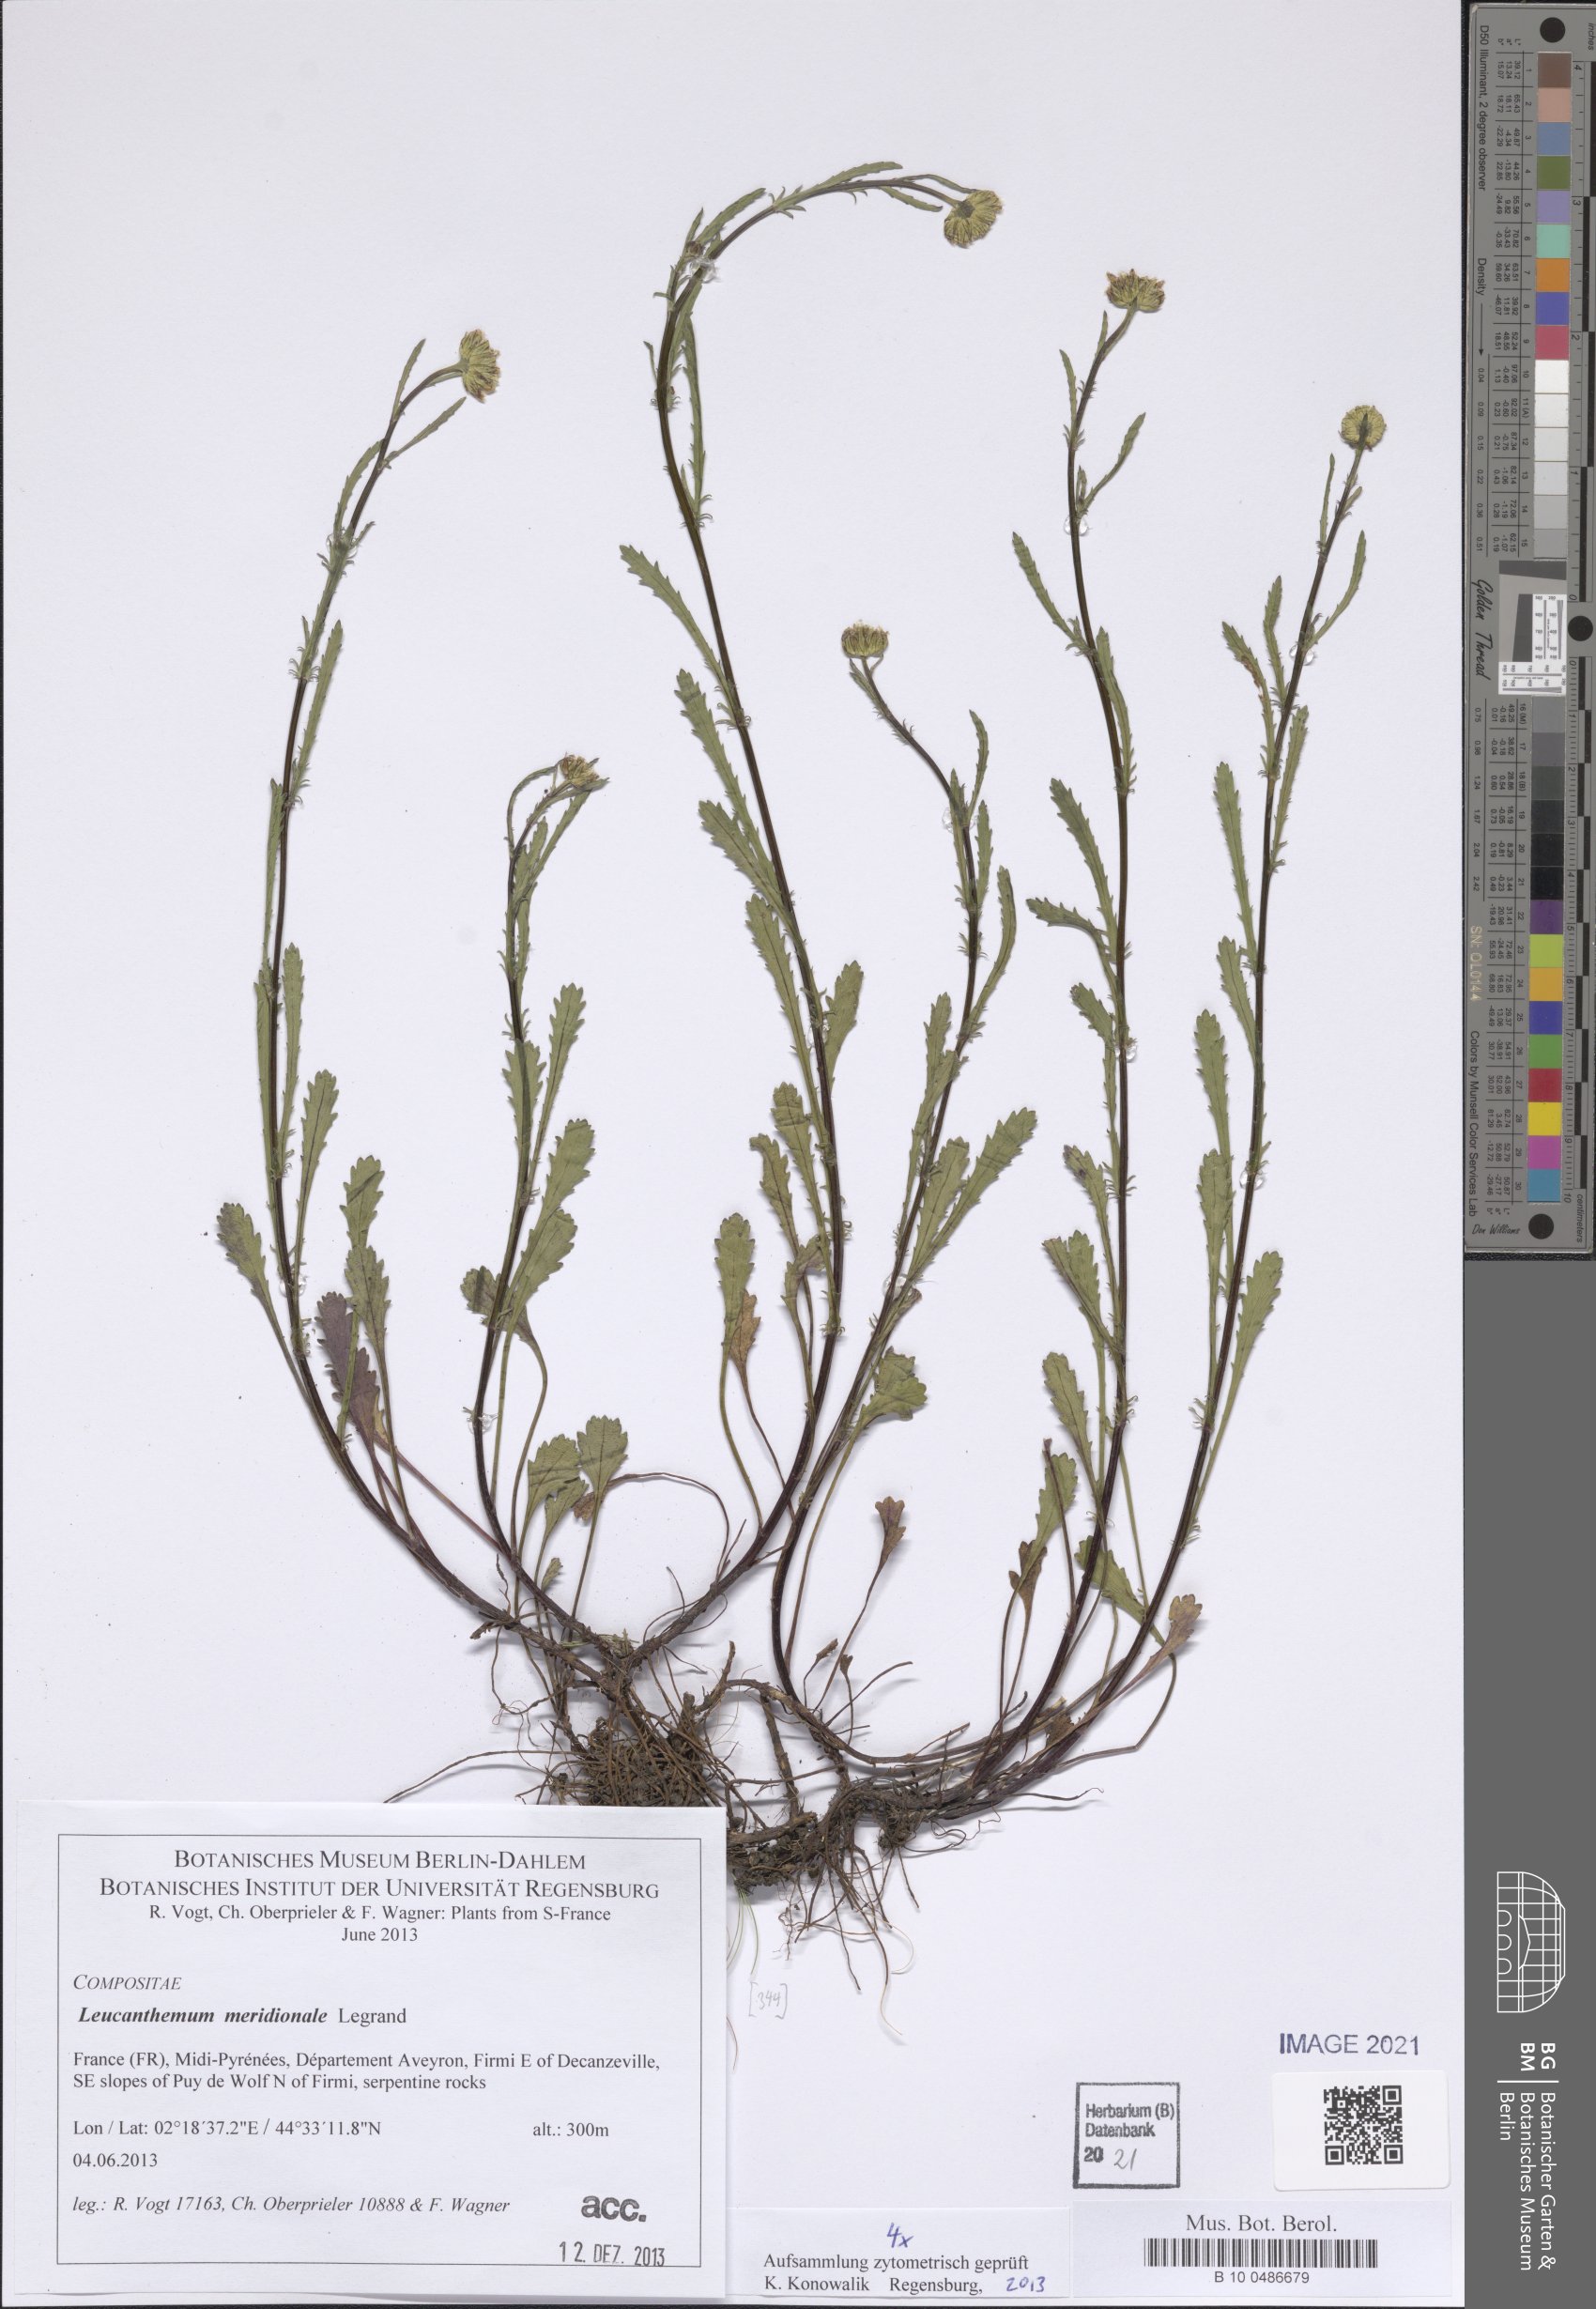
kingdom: Plantae
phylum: Tracheophyta
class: Magnoliopsida
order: Asterales
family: Asteraceae
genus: Leucanthemum
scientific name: Leucanthemum meridionale
